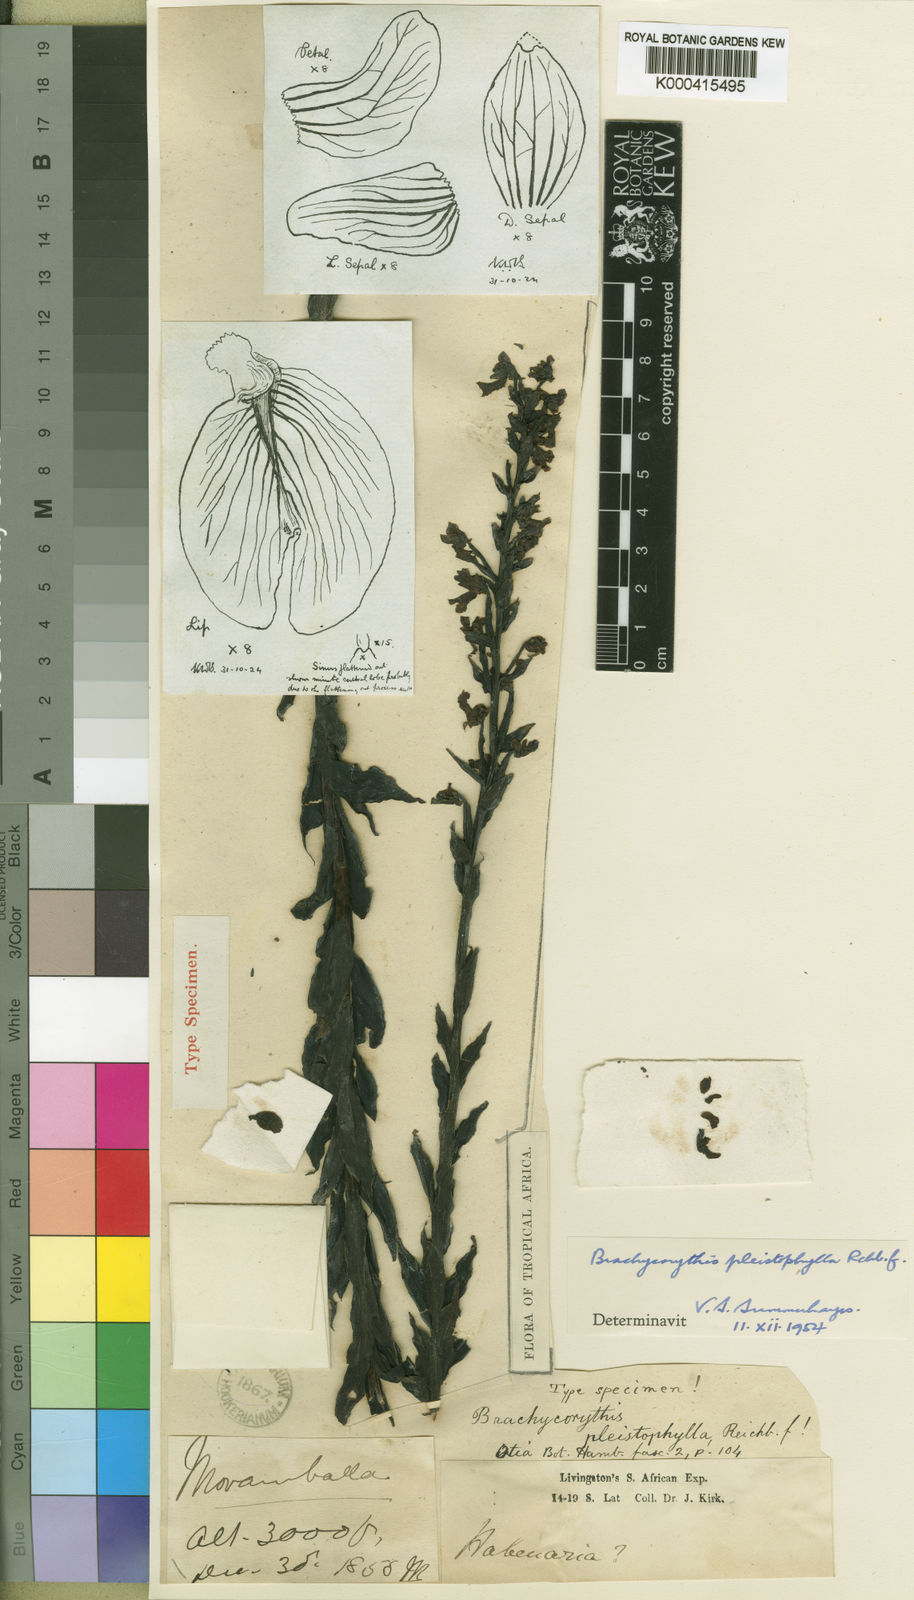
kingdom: Plantae
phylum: Tracheophyta
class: Liliopsida
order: Asparagales
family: Orchidaceae
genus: Brachycorythis
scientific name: Brachycorythis pleistophylla
